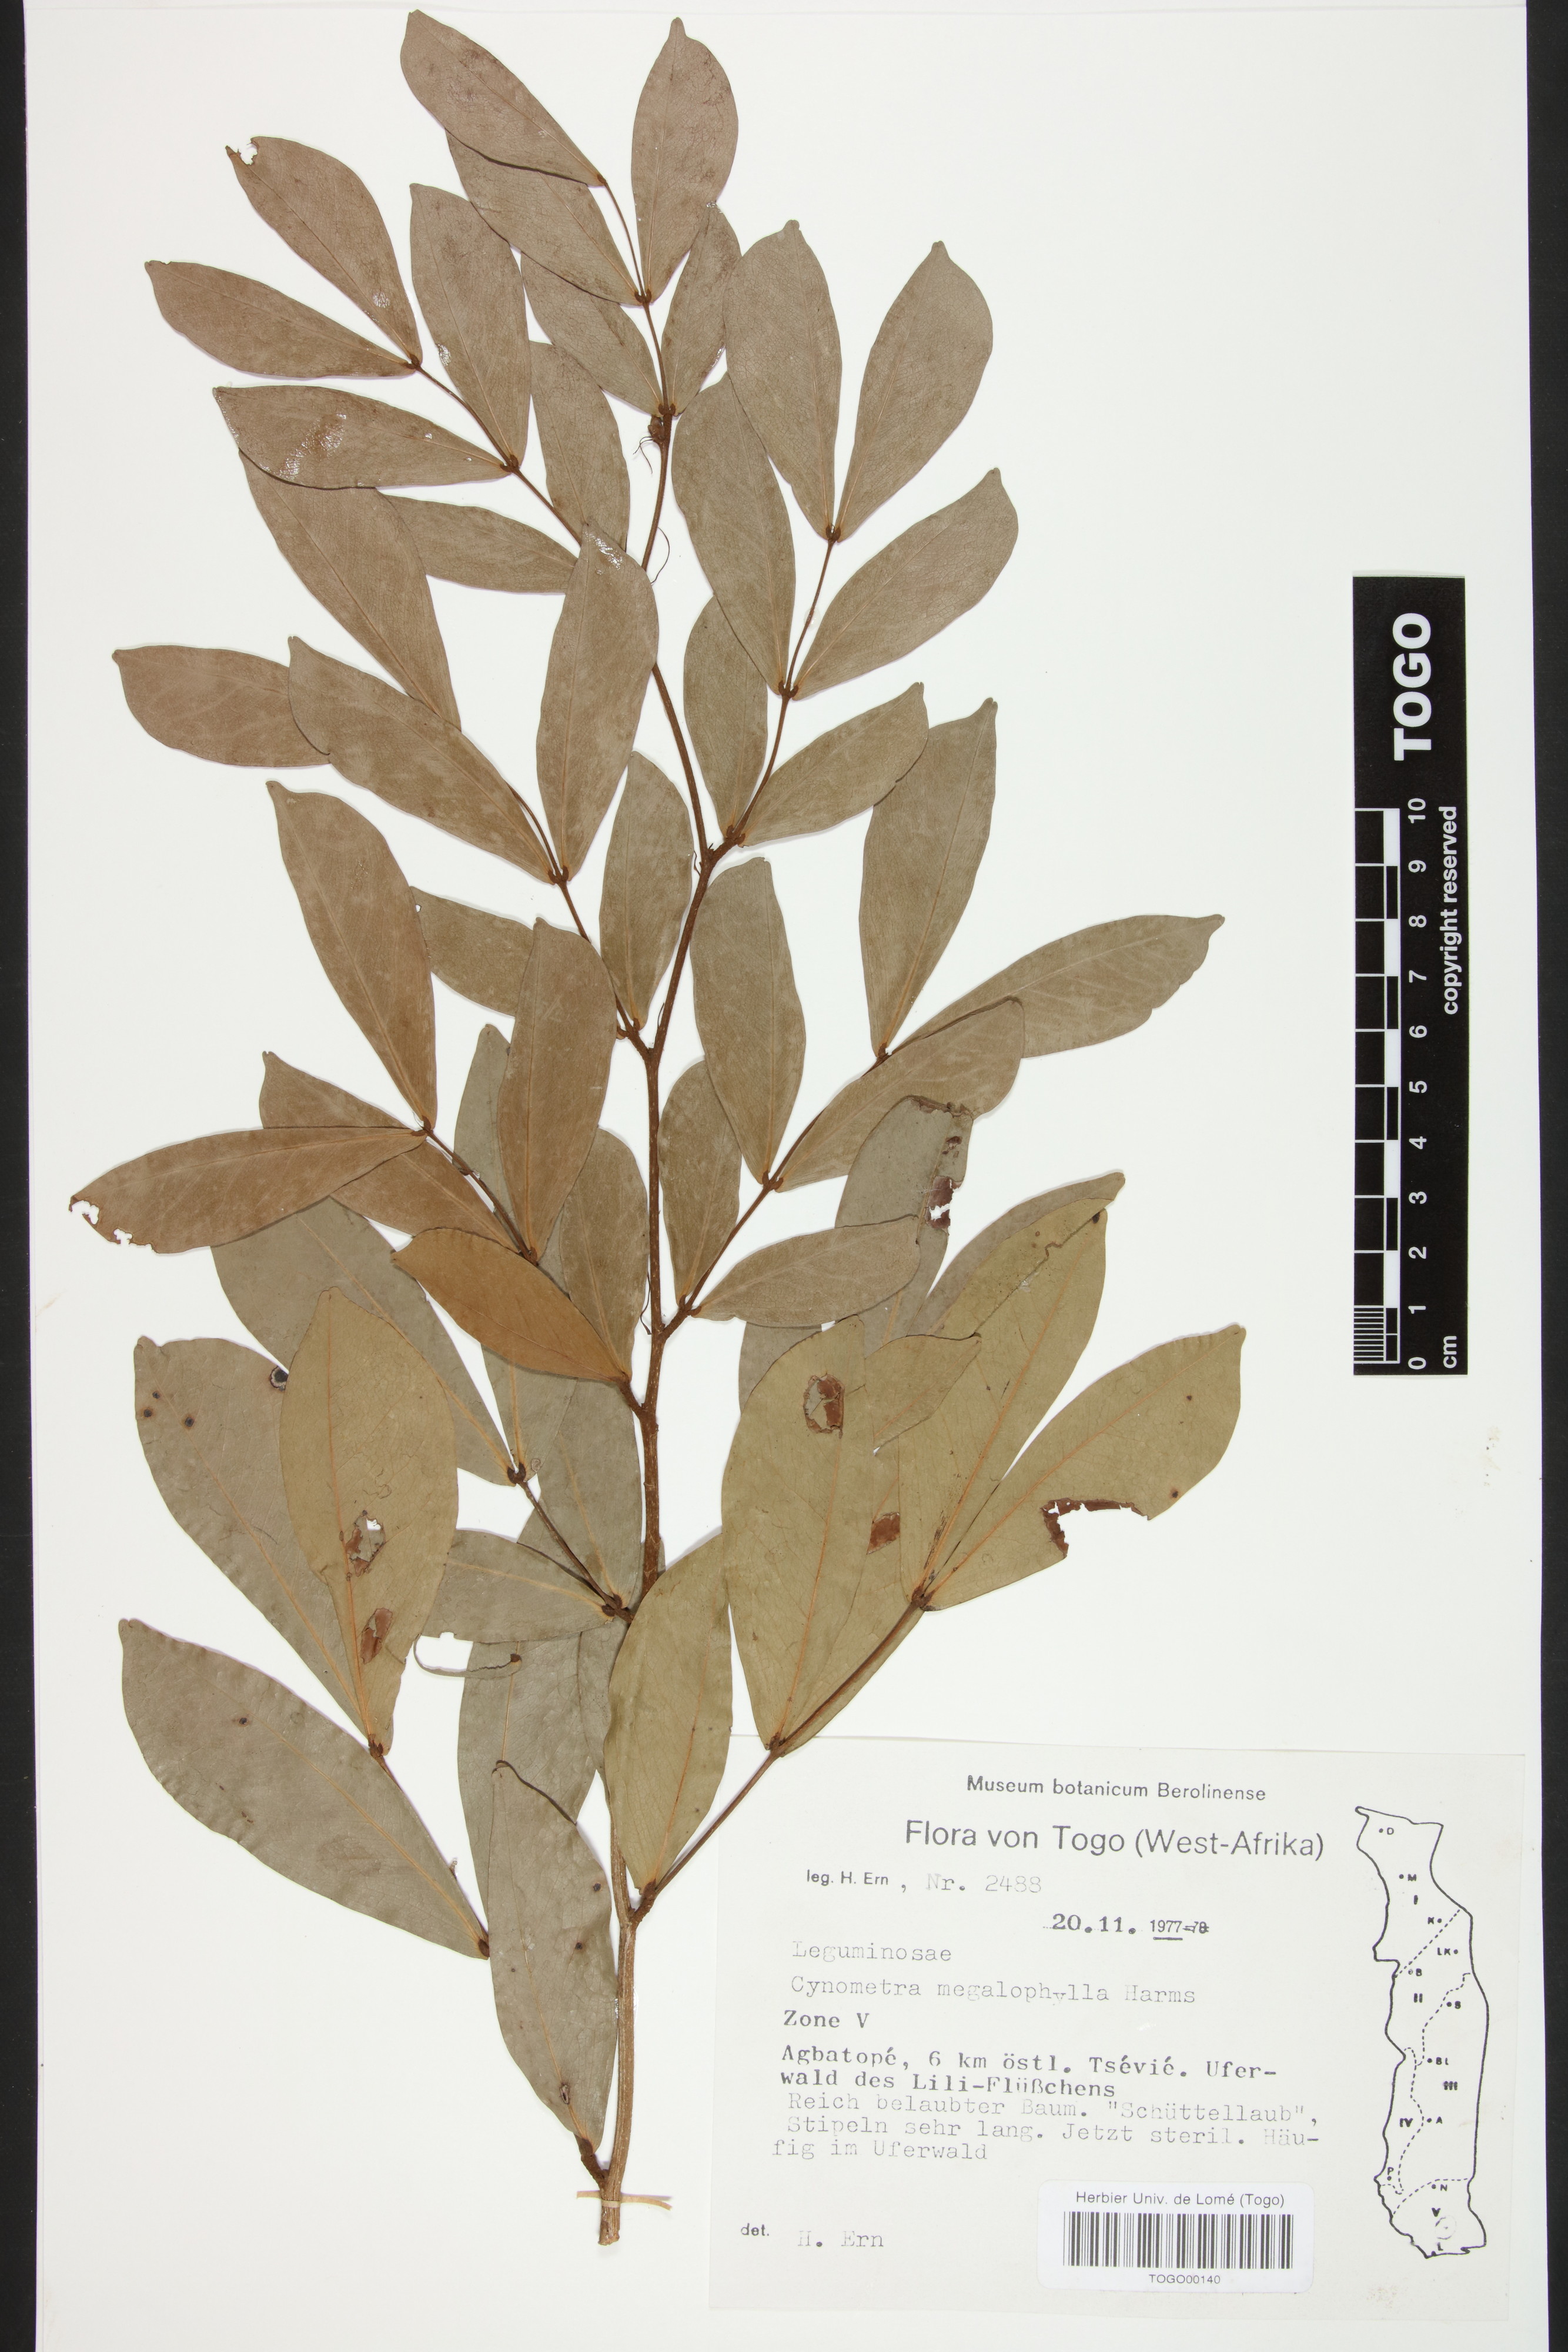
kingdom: Plantae
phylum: Tracheophyta
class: Magnoliopsida
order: Fabales
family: Fabaceae
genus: Cynometra
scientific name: Cynometra megalophylla
